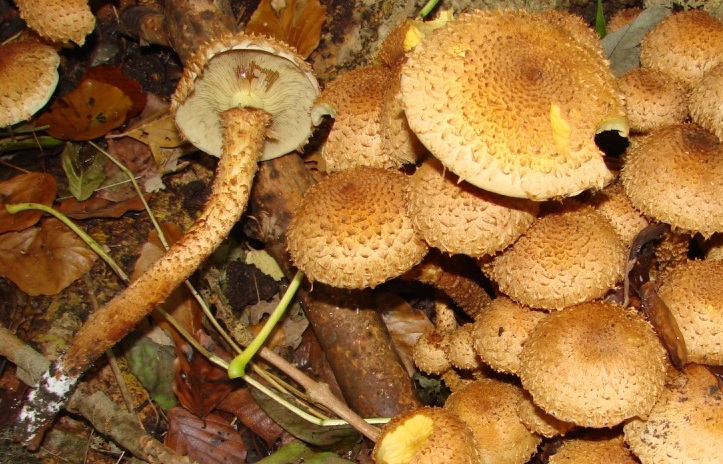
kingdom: Fungi
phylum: Basidiomycota
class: Agaricomycetes
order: Agaricales
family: Strophariaceae
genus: Pholiota
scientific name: Pholiota squarrosa
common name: krumskællet skælhat
